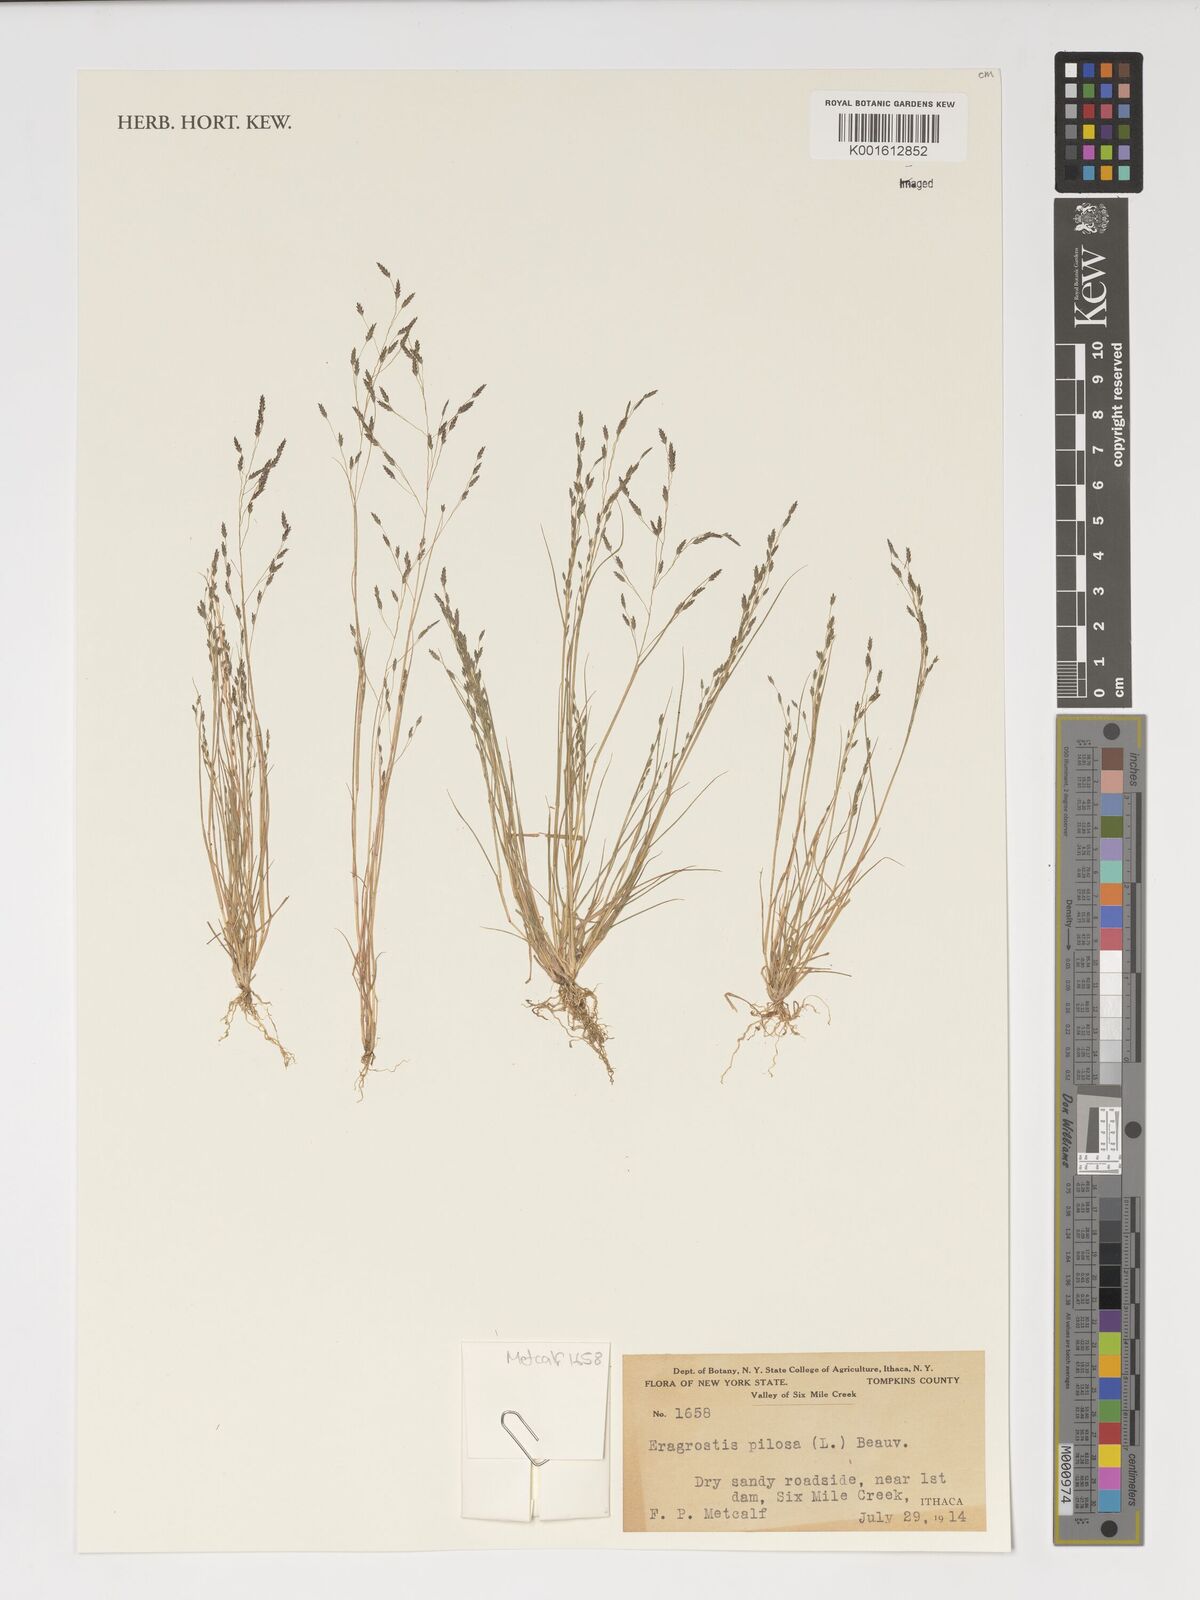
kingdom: Plantae
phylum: Tracheophyta
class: Liliopsida
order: Poales
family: Poaceae
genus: Eragrostis
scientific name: Eragrostis pilosa
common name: Indian lovegrass
